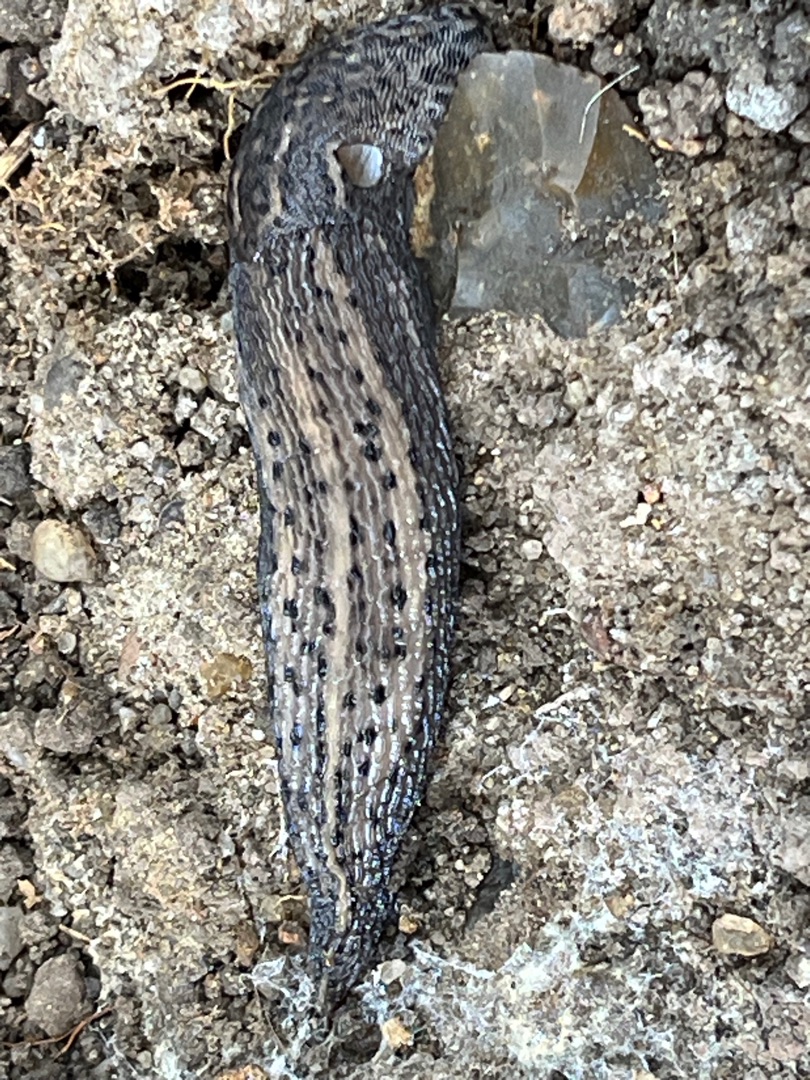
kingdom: Animalia
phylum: Mollusca
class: Gastropoda
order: Stylommatophora
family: Limacidae
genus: Limax
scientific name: Limax maximus
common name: Pantersnegl
